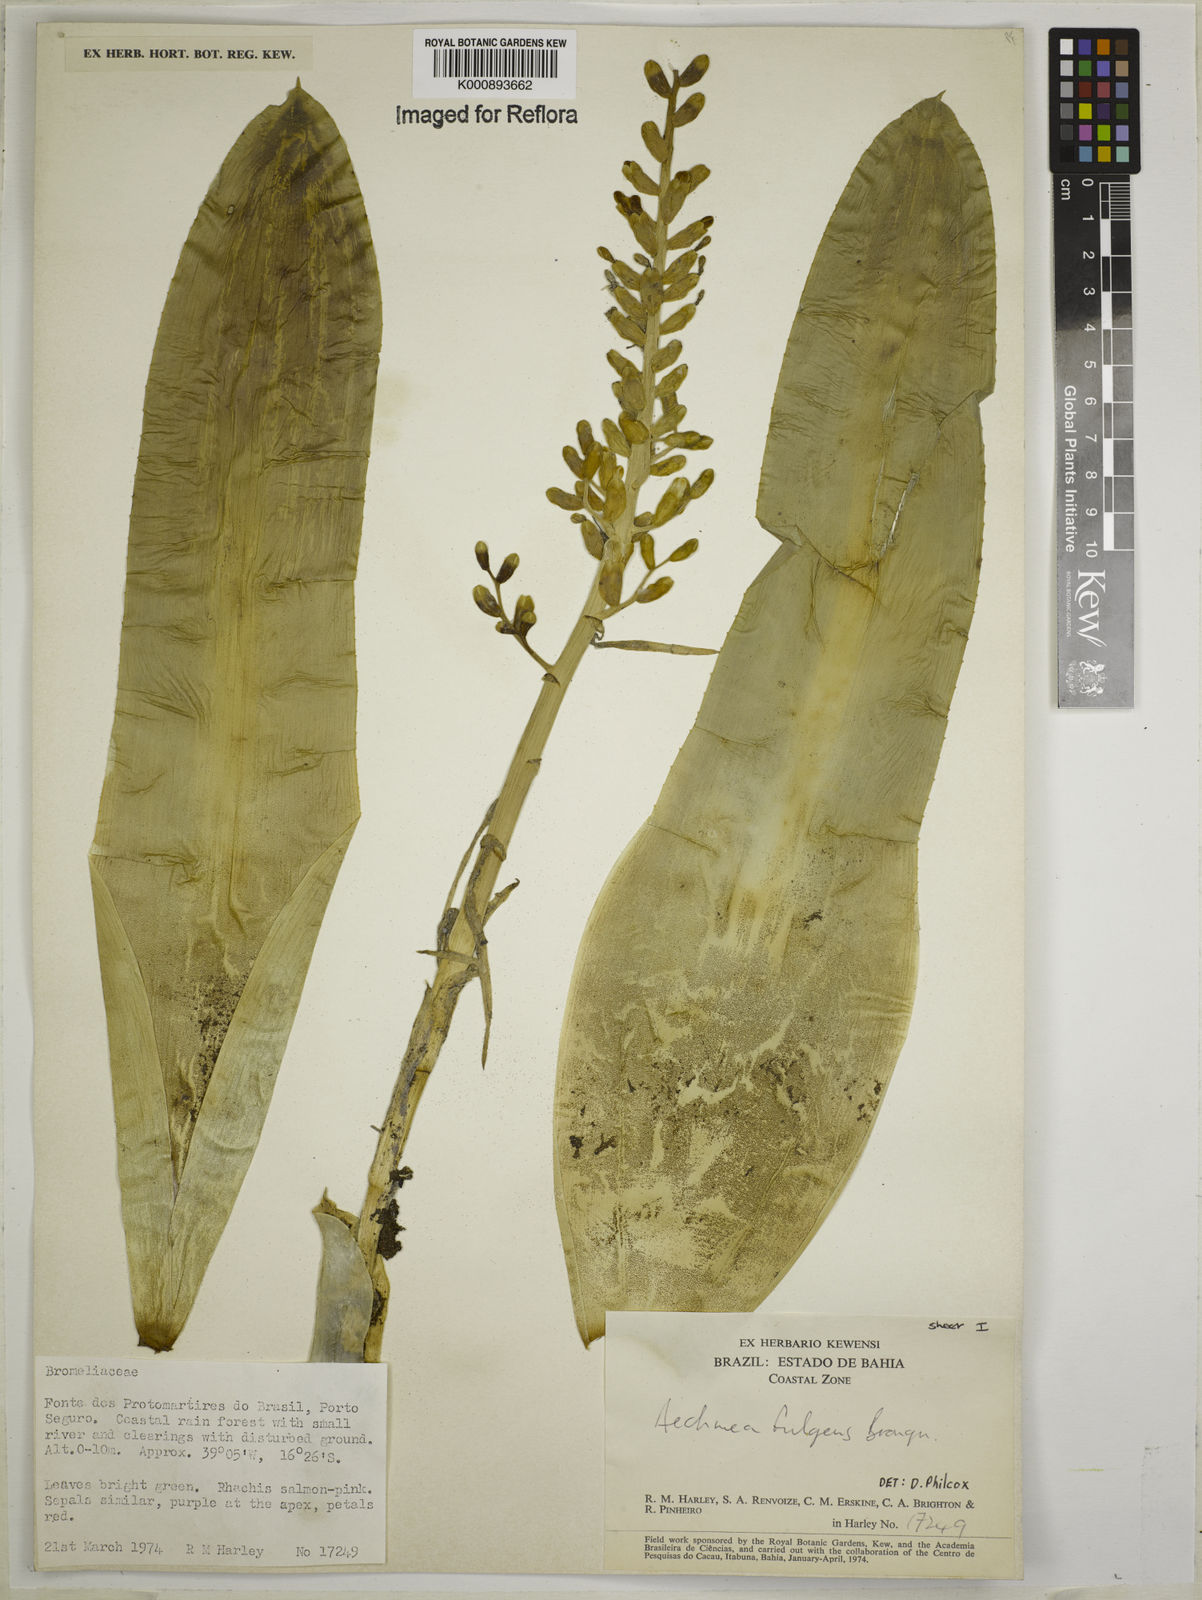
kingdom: Plantae
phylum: Tracheophyta
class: Liliopsida
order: Poales
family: Bromeliaceae
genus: Aechmea
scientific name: Aechmea fulgens
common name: Coralberry
